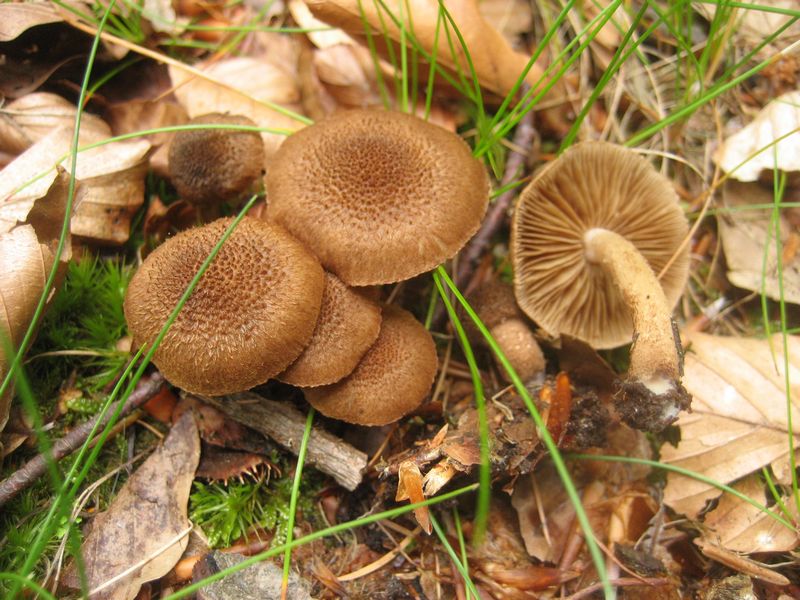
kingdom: Fungi
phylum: Basidiomycota
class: Agaricomycetes
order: Agaricales
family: Inocybaceae
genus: Inocybe
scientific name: Inocybe lanuginosa
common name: uldskællet trævlhat
